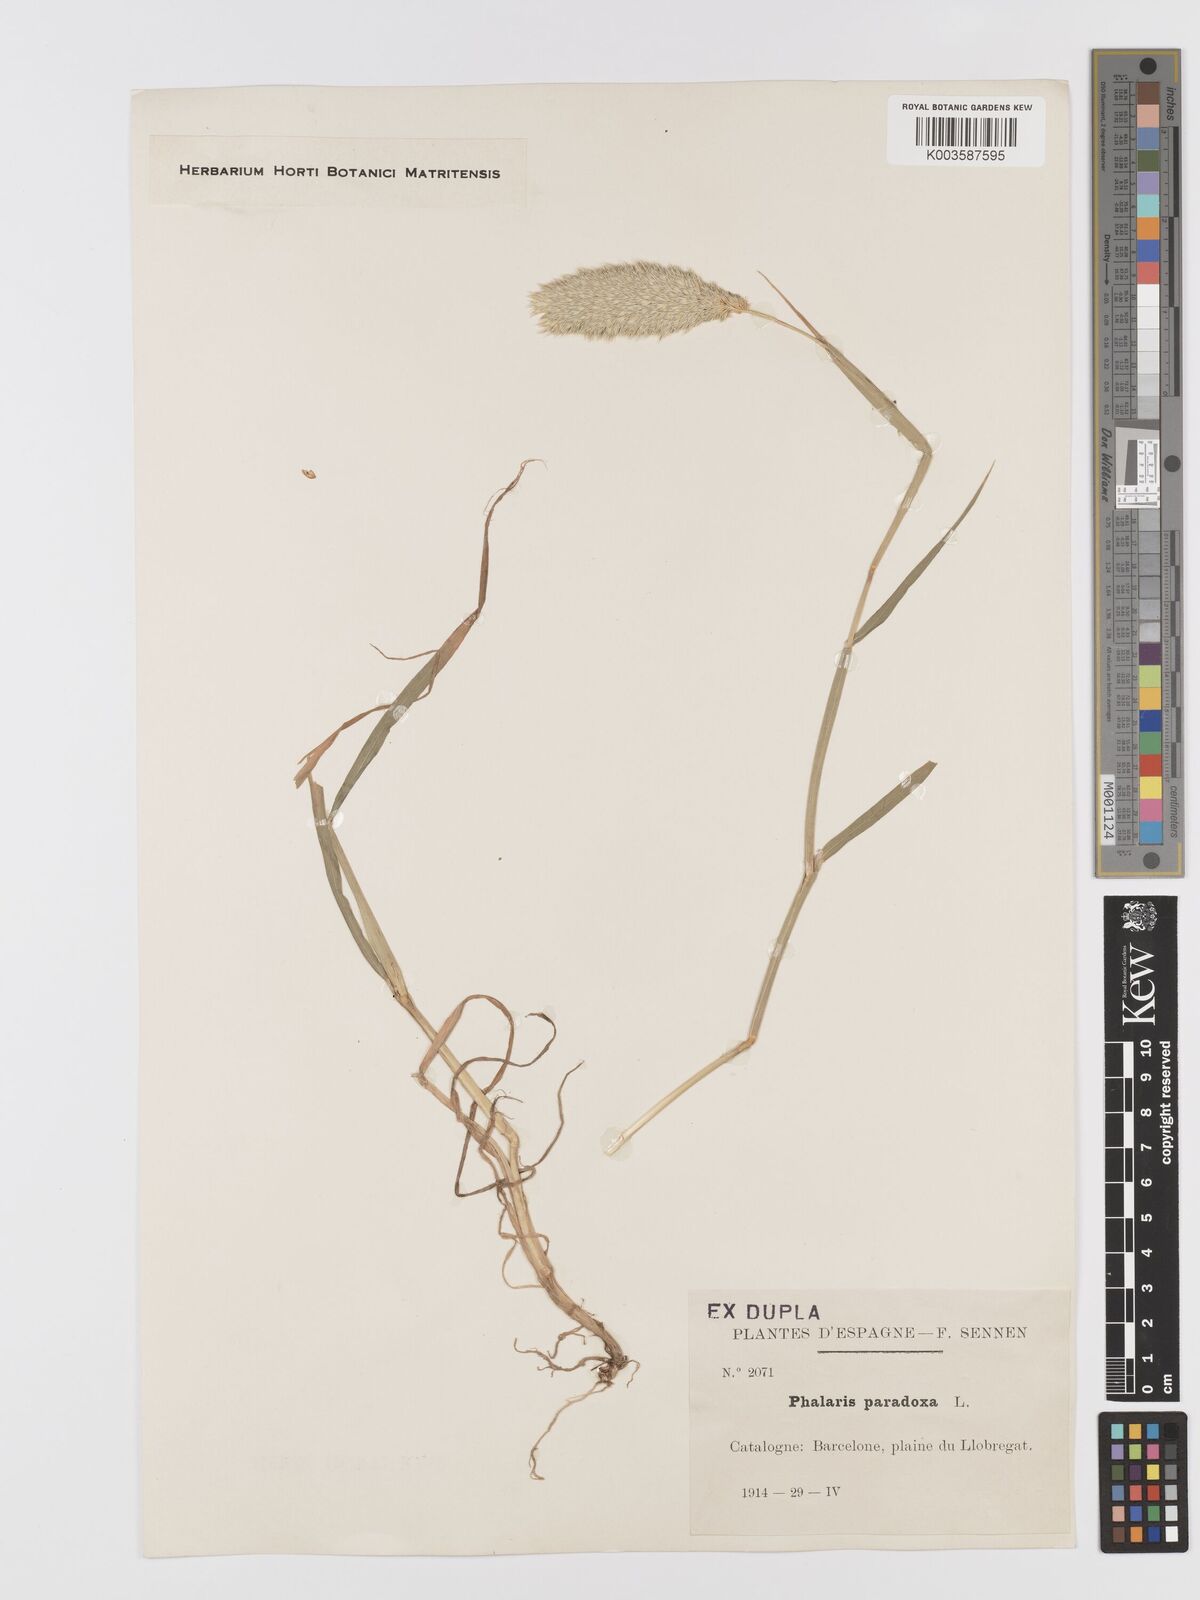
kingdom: Plantae
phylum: Tracheophyta
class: Liliopsida
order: Poales
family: Poaceae
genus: Phalaris
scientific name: Phalaris paradoxa
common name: Awned canary-grass
